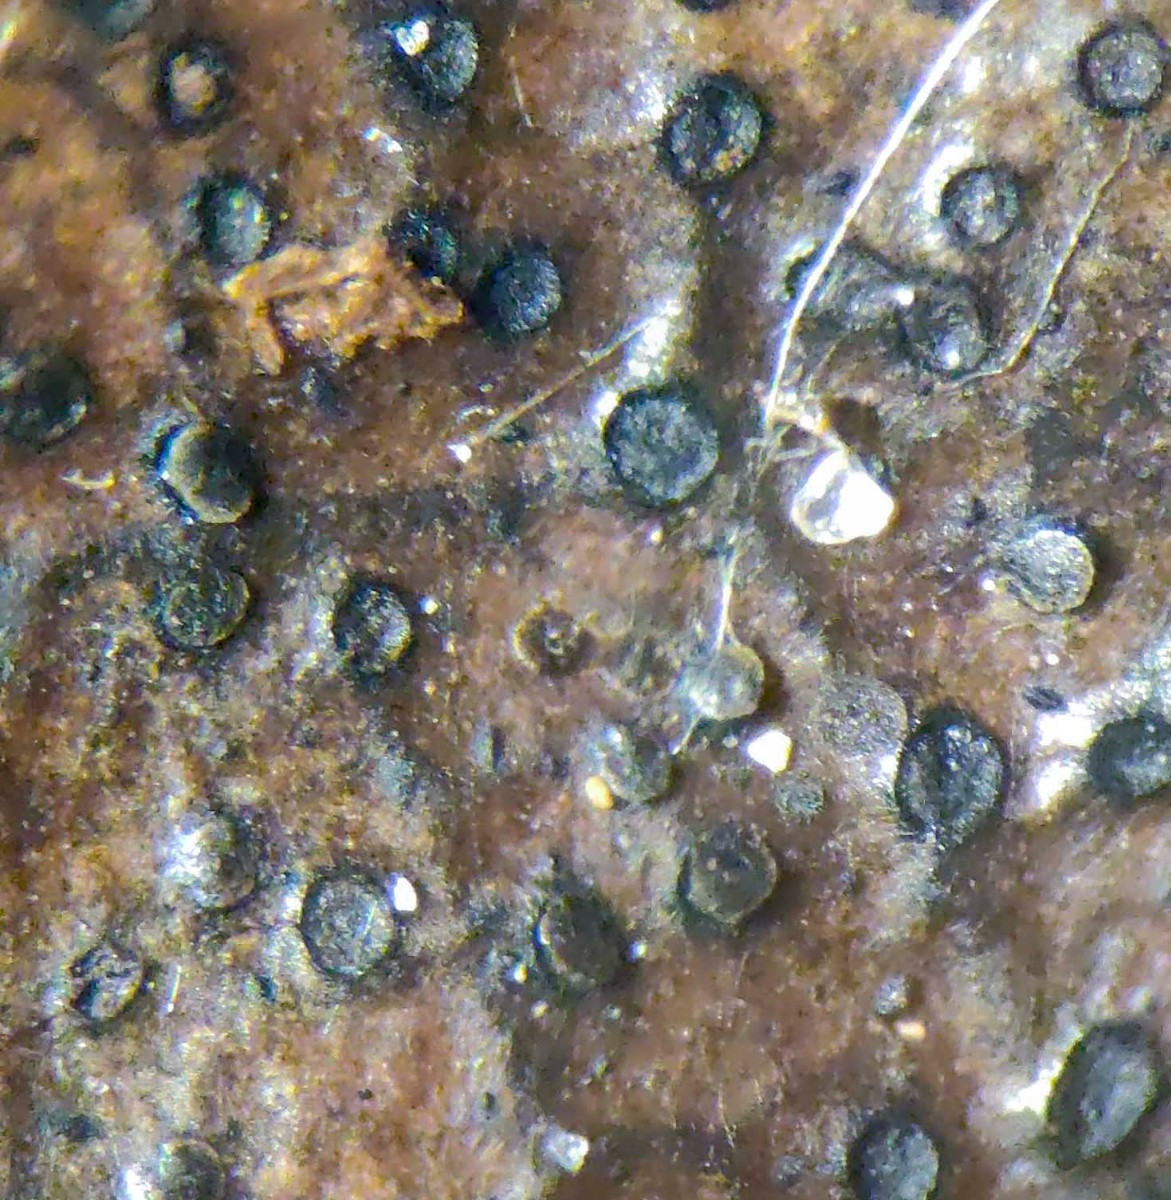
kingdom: Fungi
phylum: Ascomycota
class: Leotiomycetes
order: Helotiales
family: Cenangiaceae
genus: Trochila
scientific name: Trochila ilicina
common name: kristtorn-lågskive
